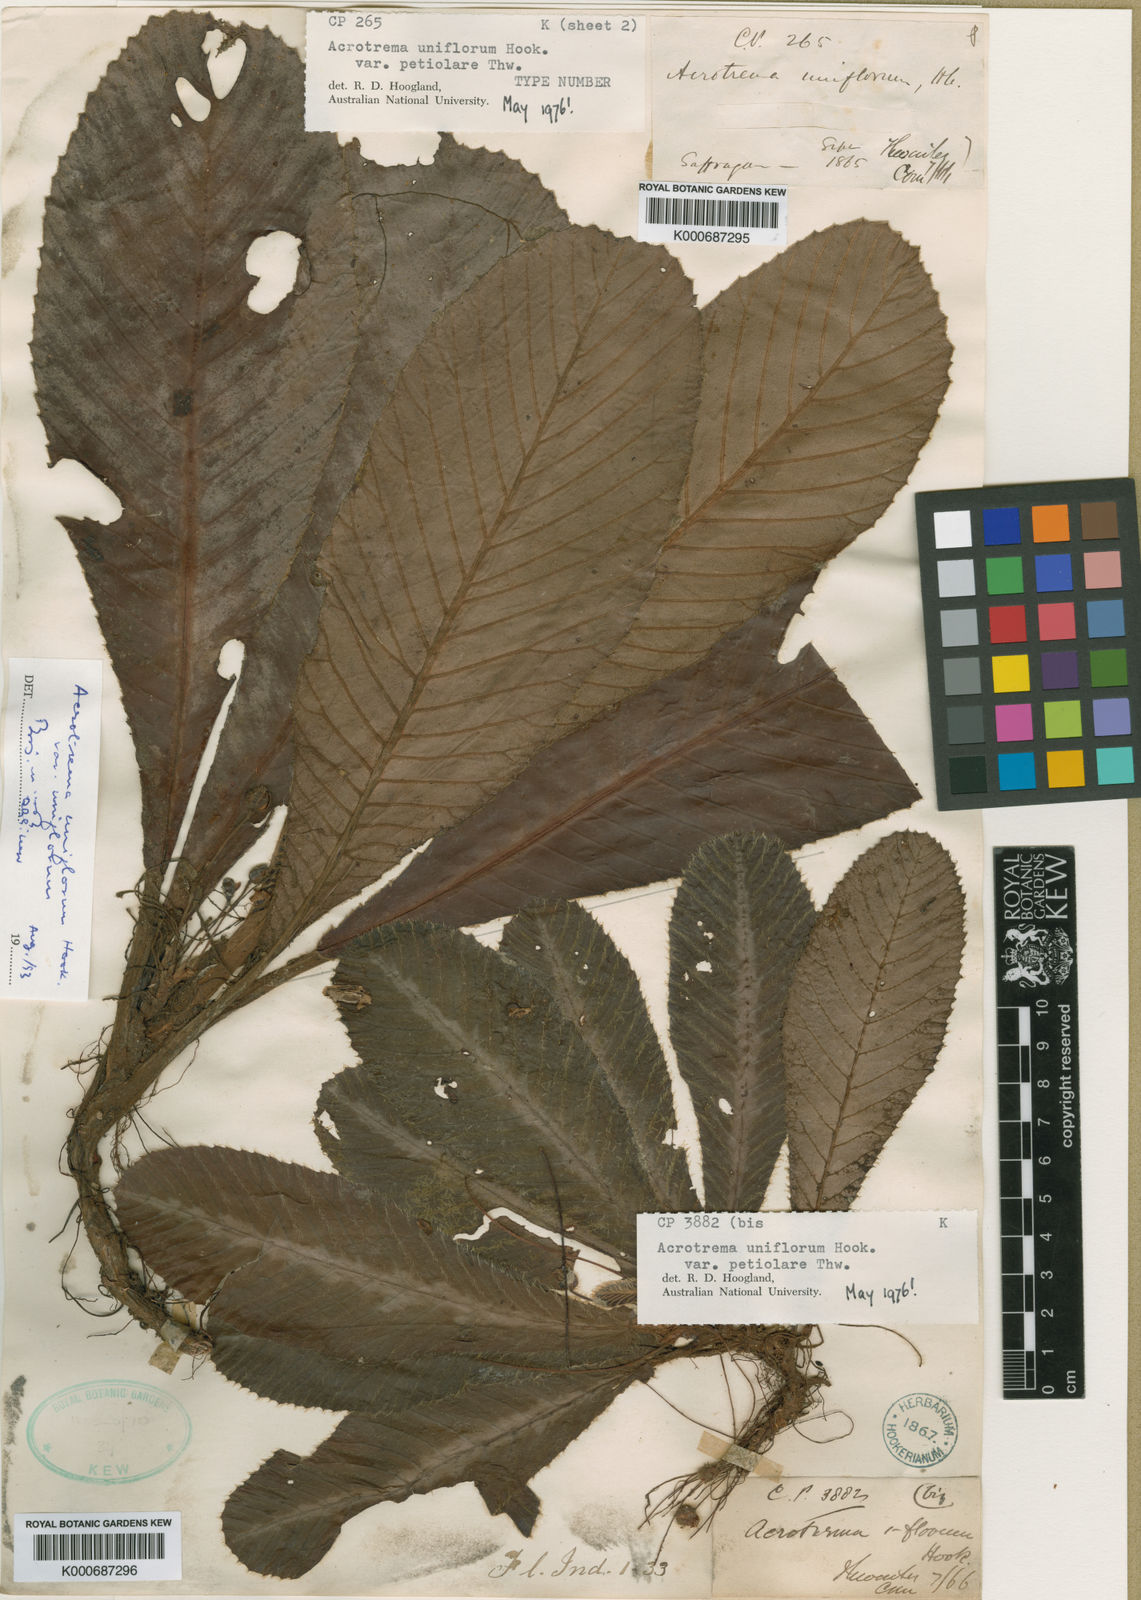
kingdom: Plantae
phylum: Tracheophyta
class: Magnoliopsida
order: Dilleniales
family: Dilleniaceae
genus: Acrotrema
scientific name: Acrotrema uniflorum
